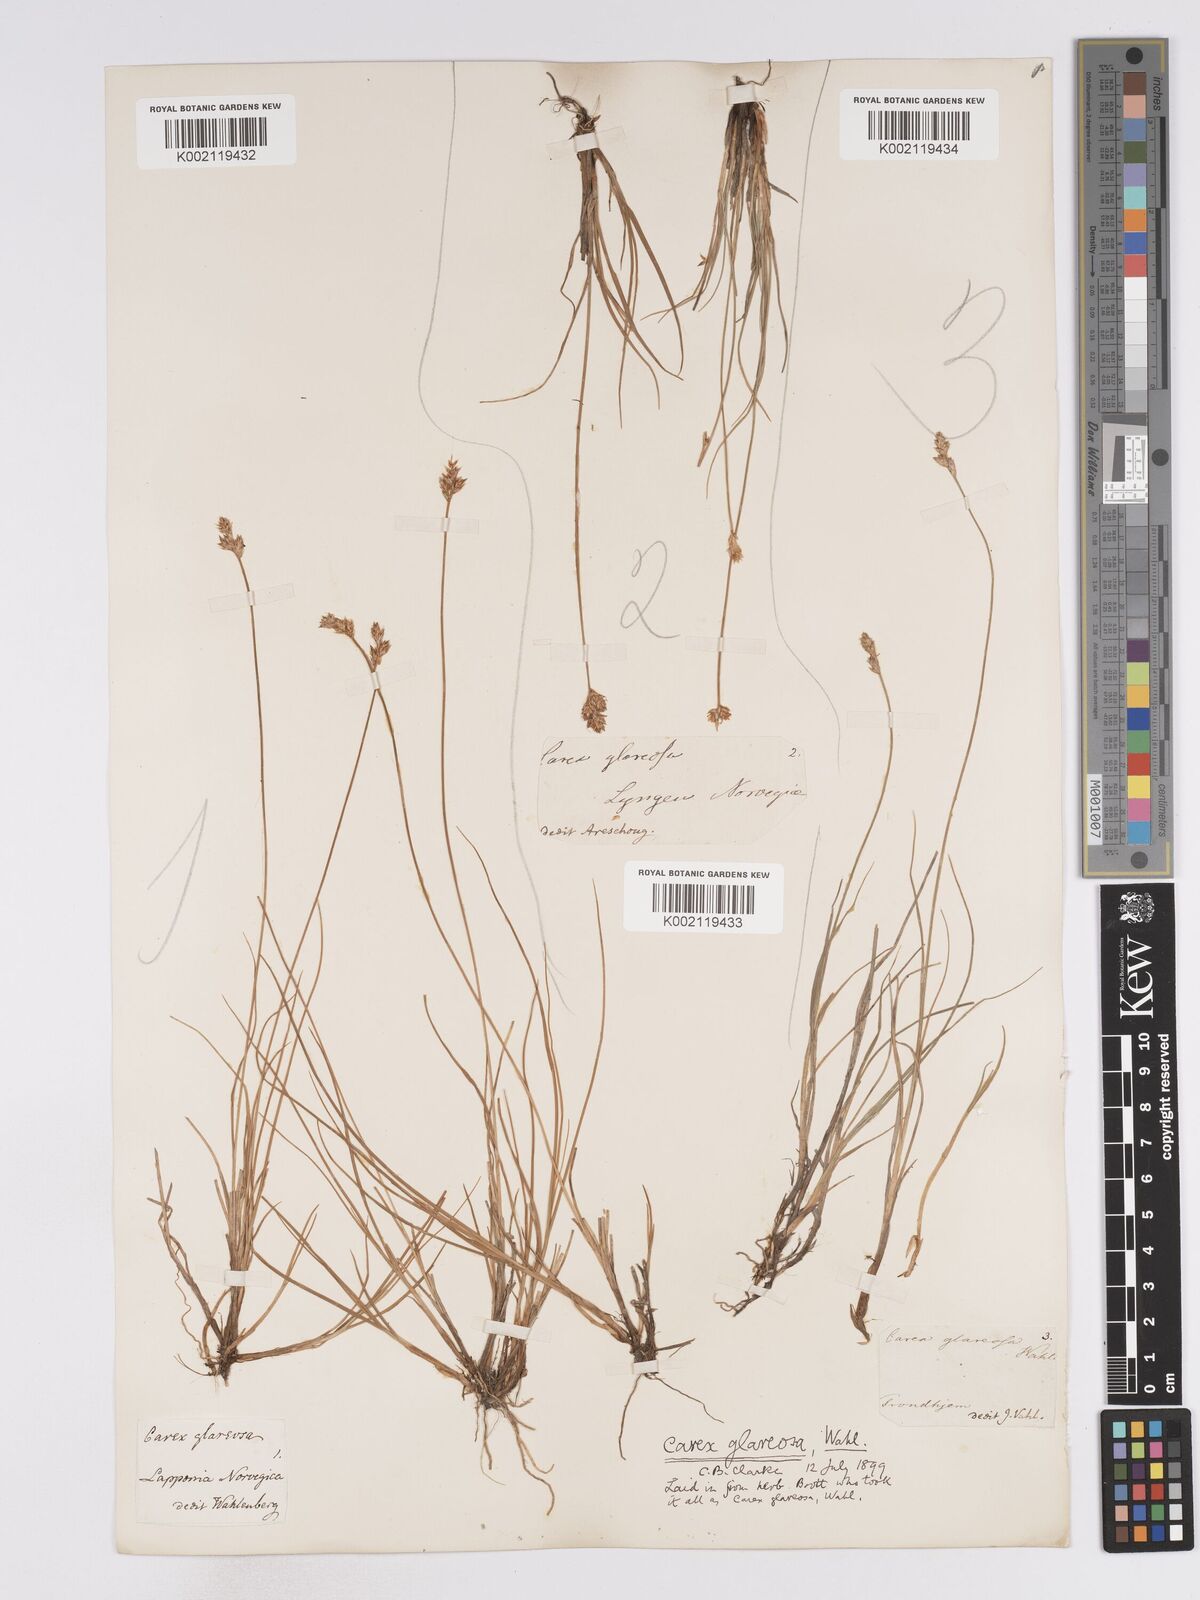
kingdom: Plantae
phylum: Tracheophyta
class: Liliopsida
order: Poales
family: Cyperaceae
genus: Carex
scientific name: Carex glareosa
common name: Clustered sedge
